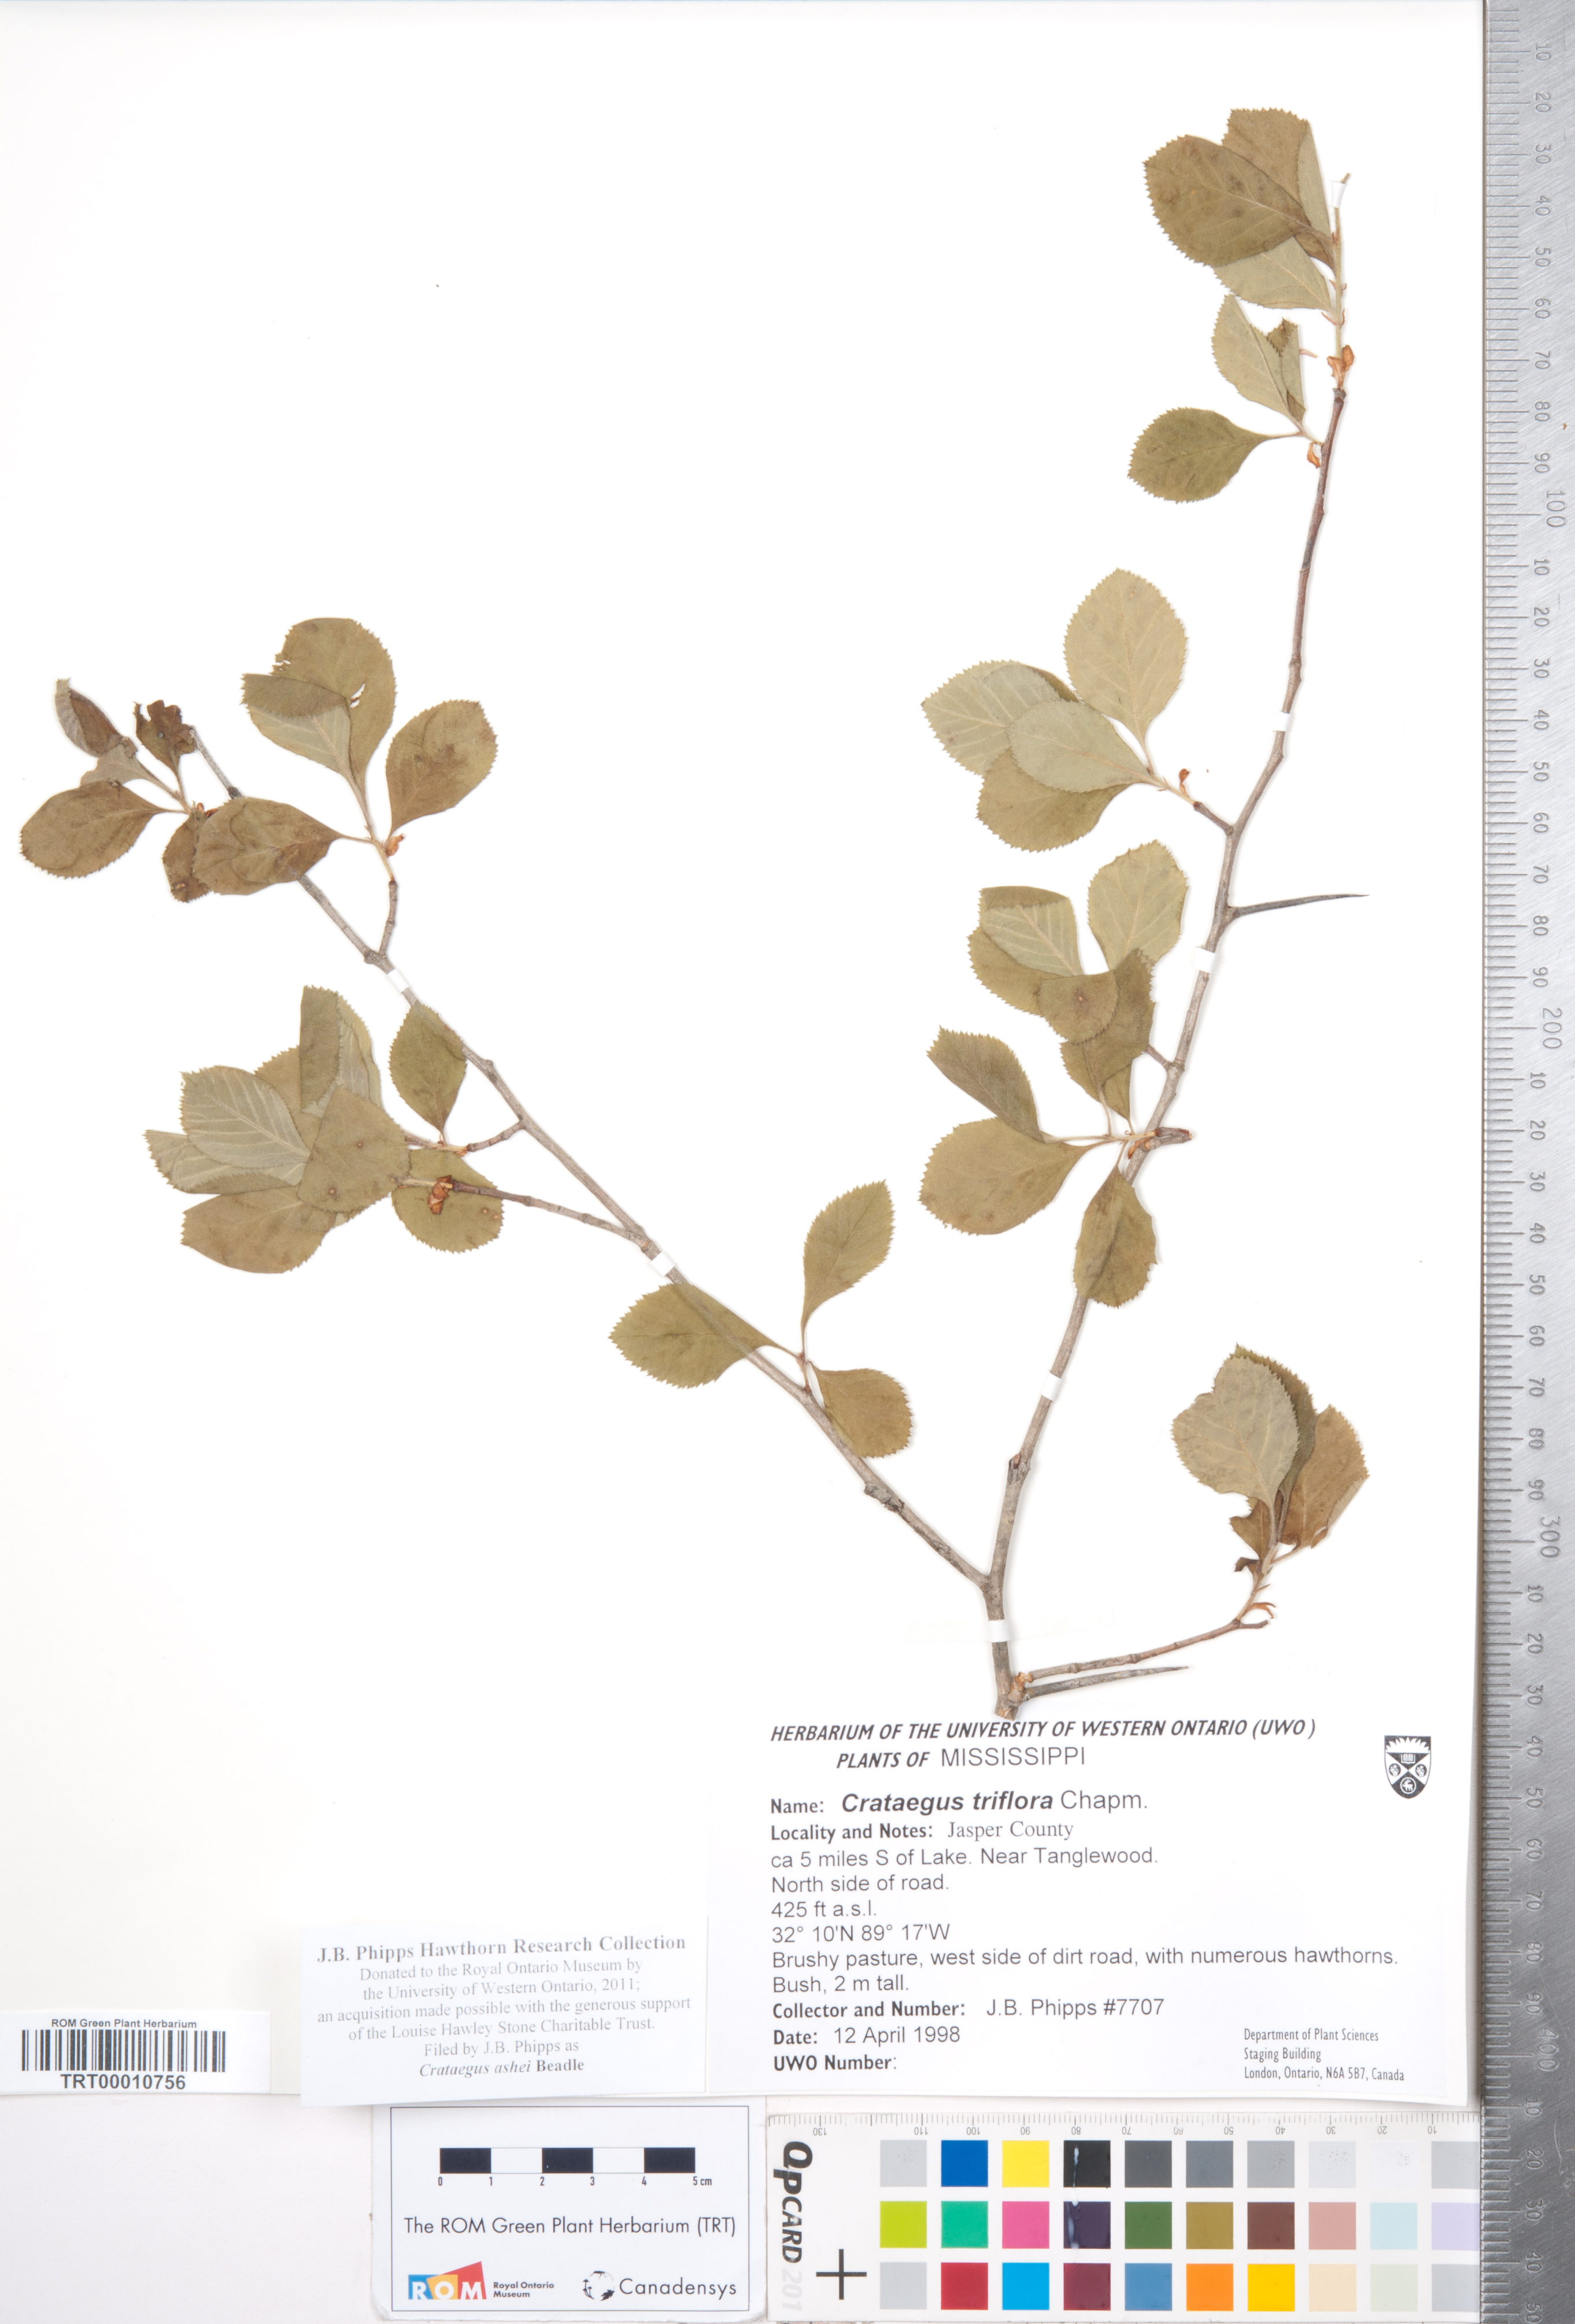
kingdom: Plantae
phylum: Tracheophyta
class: Magnoliopsida
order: Rosales
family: Rosaceae
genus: Crataegus
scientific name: Crataegus ashei
